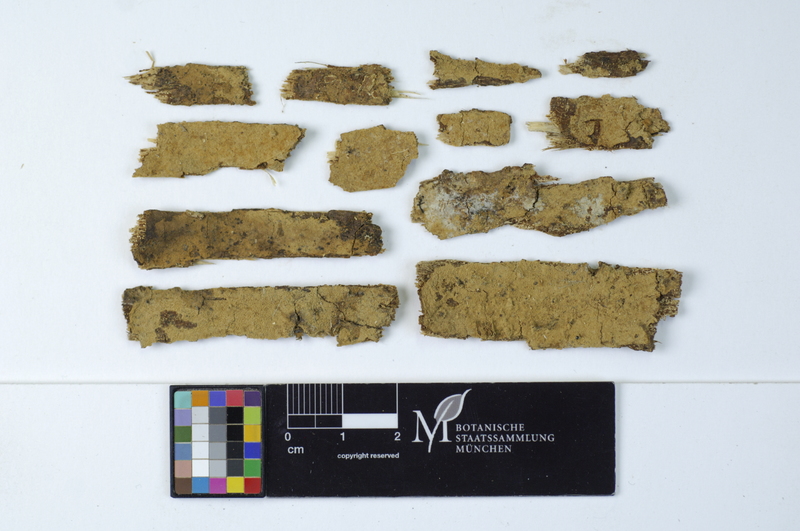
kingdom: Fungi
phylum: Basidiomycota
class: Agaricomycetes
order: Cantharellales
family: Botryobasidiaceae
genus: Botryobasidium
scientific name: Botryobasidium isabellinum
